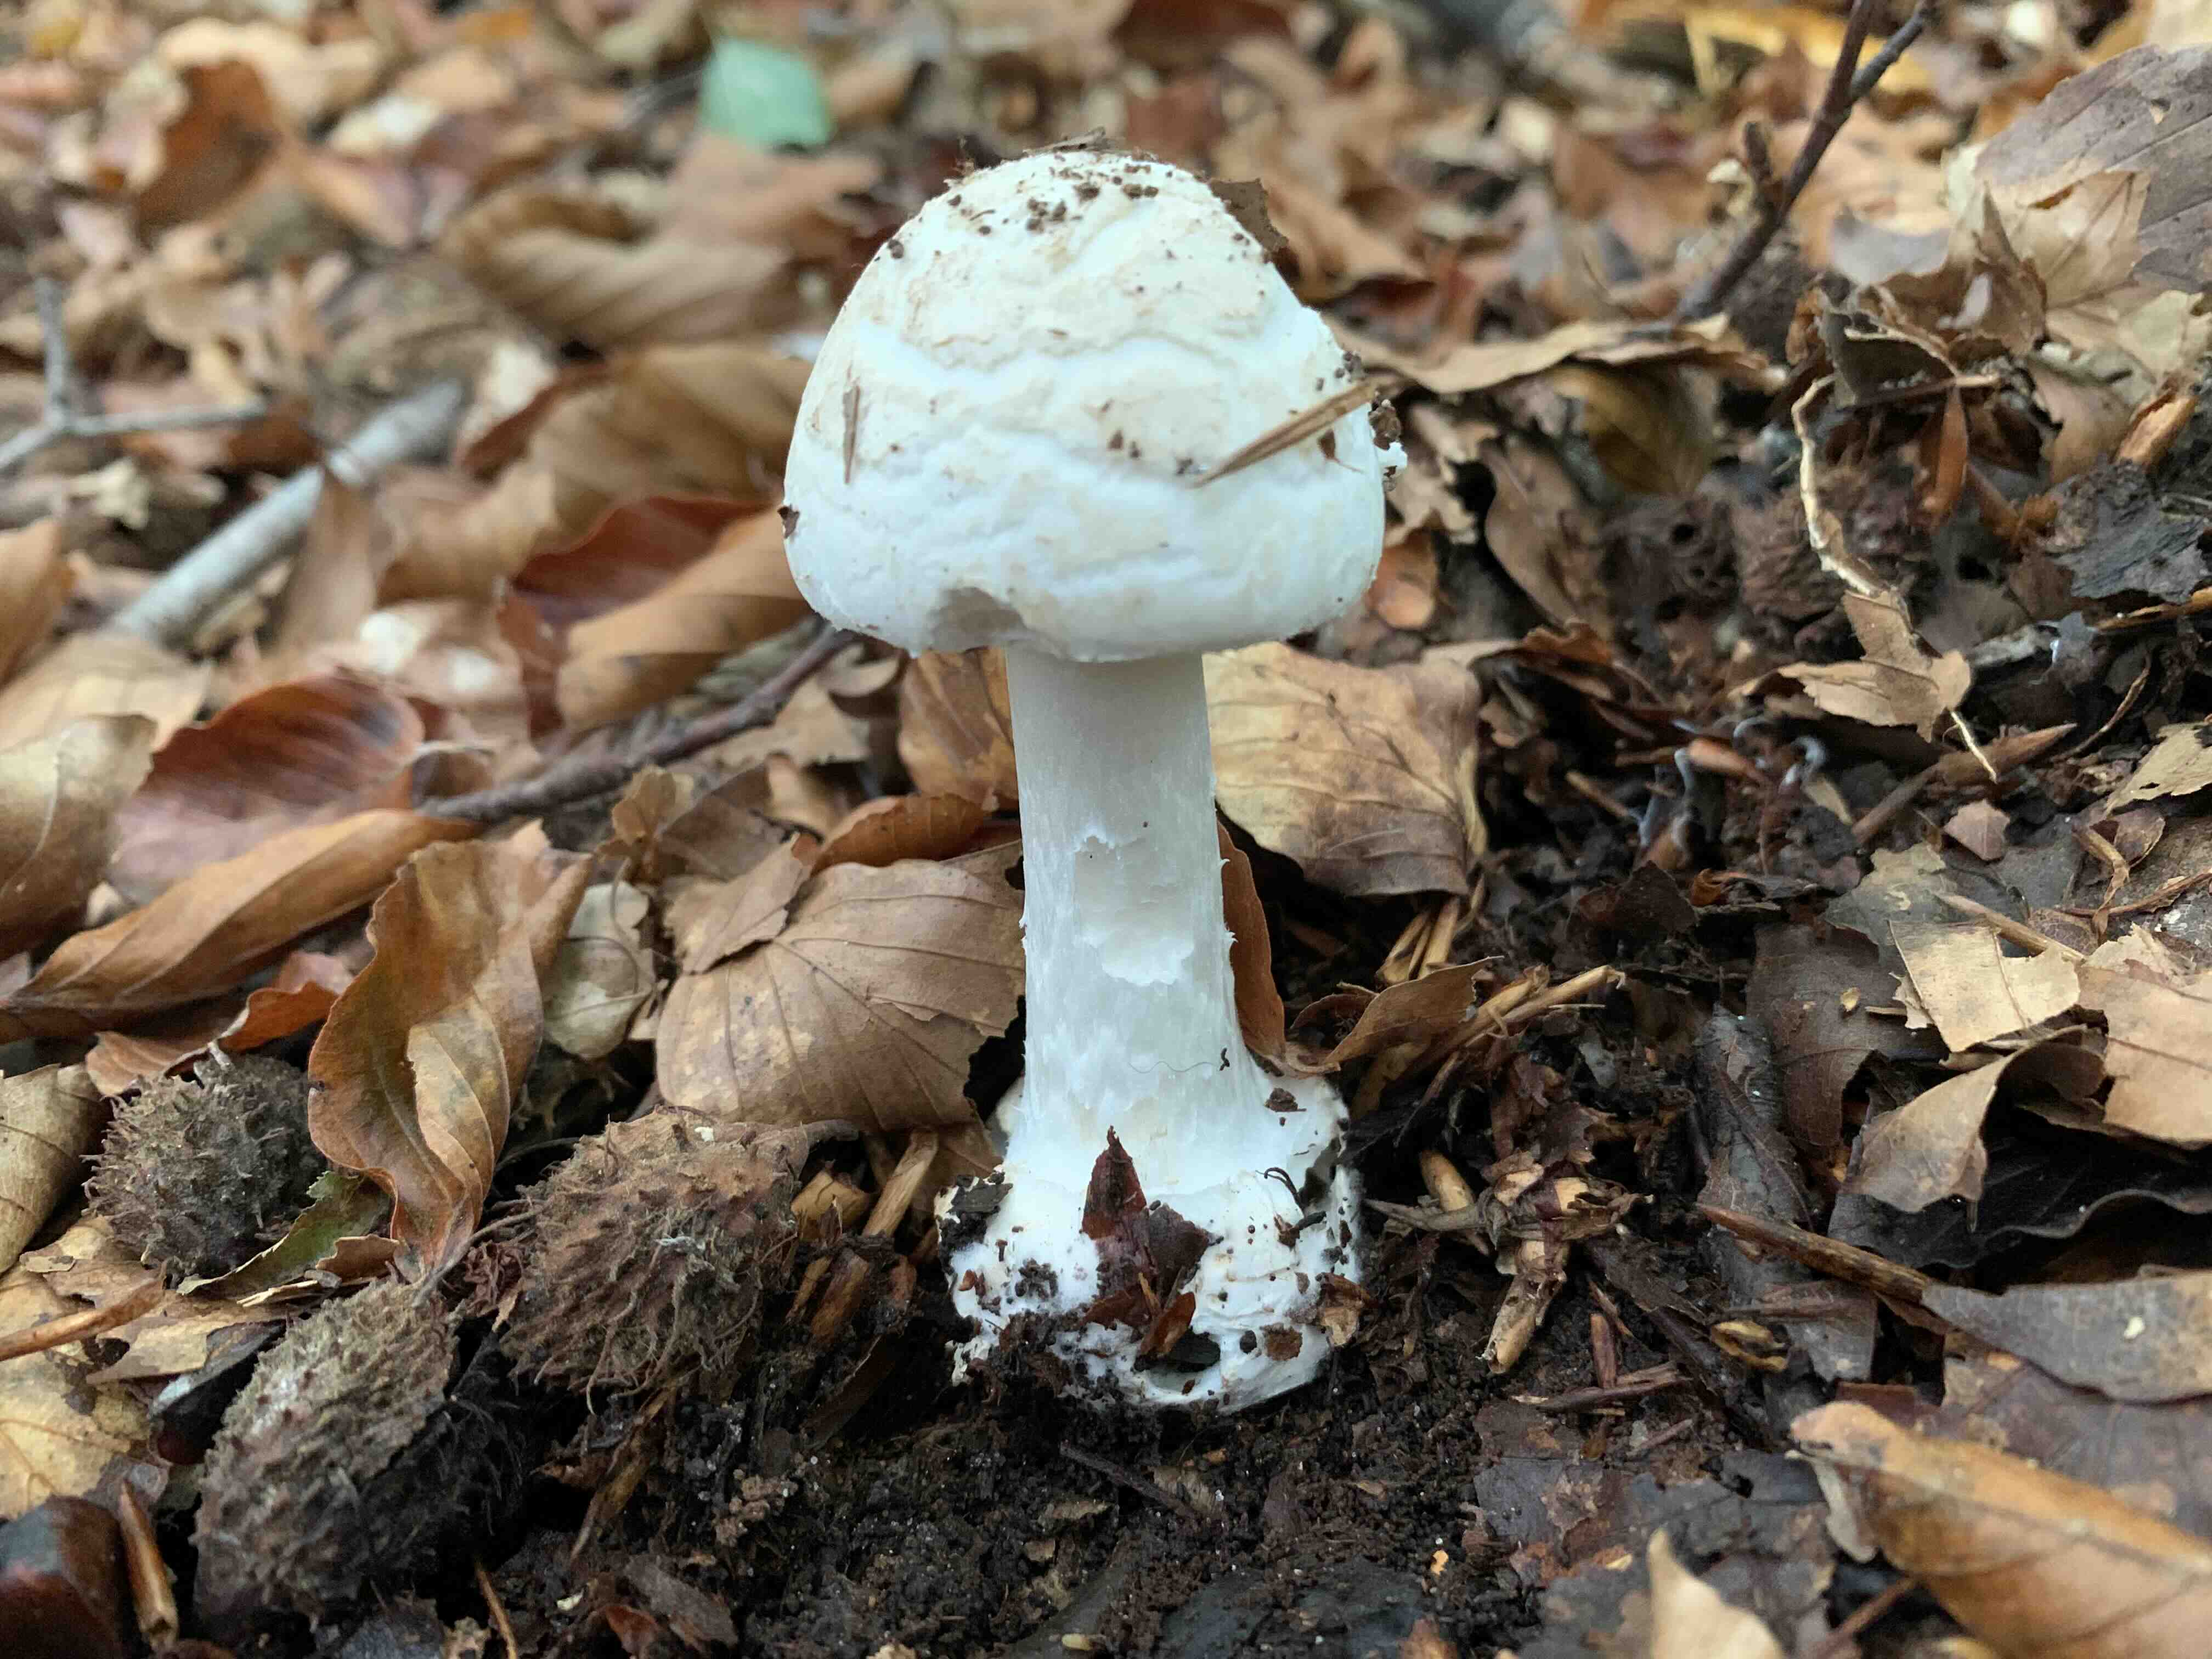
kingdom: Fungi
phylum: Basidiomycota
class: Agaricomycetes
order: Agaricales
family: Amanitaceae
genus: Amanita
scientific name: Amanita citrina
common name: kugleknoldet fluesvamp
